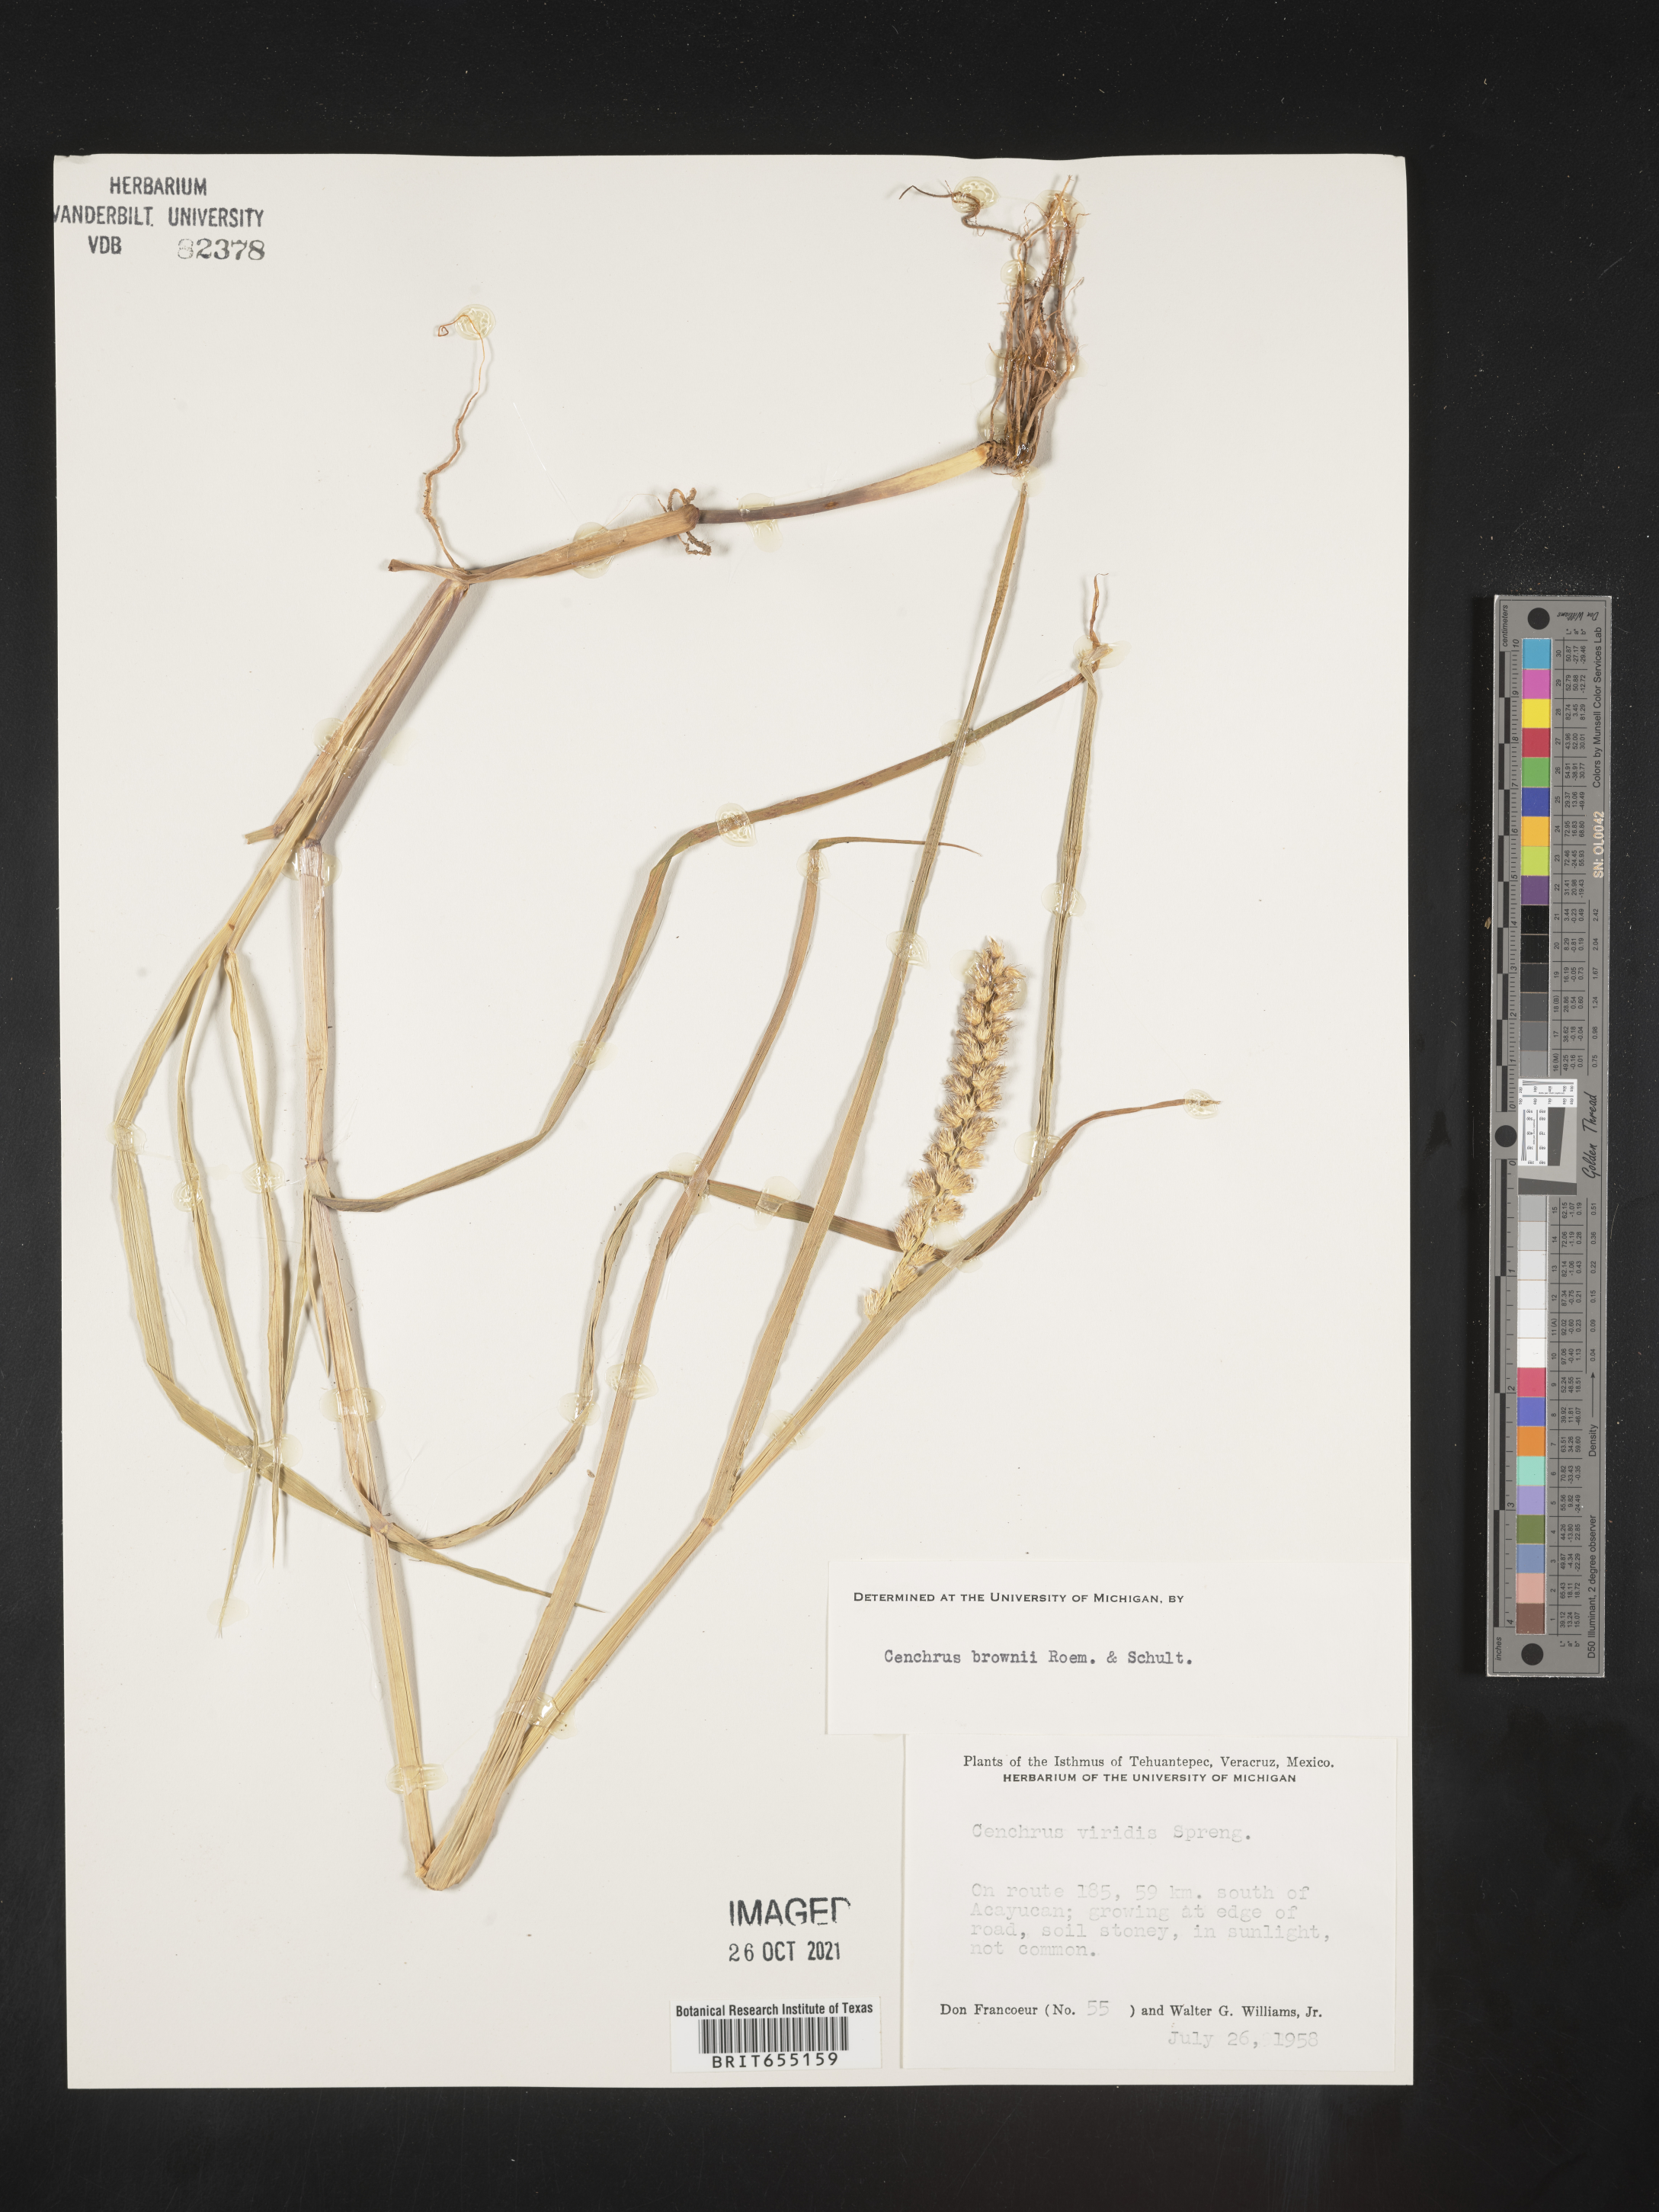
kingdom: Plantae
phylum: Tracheophyta
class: Liliopsida
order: Poales
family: Poaceae
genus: Cenchrus
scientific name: Cenchrus
